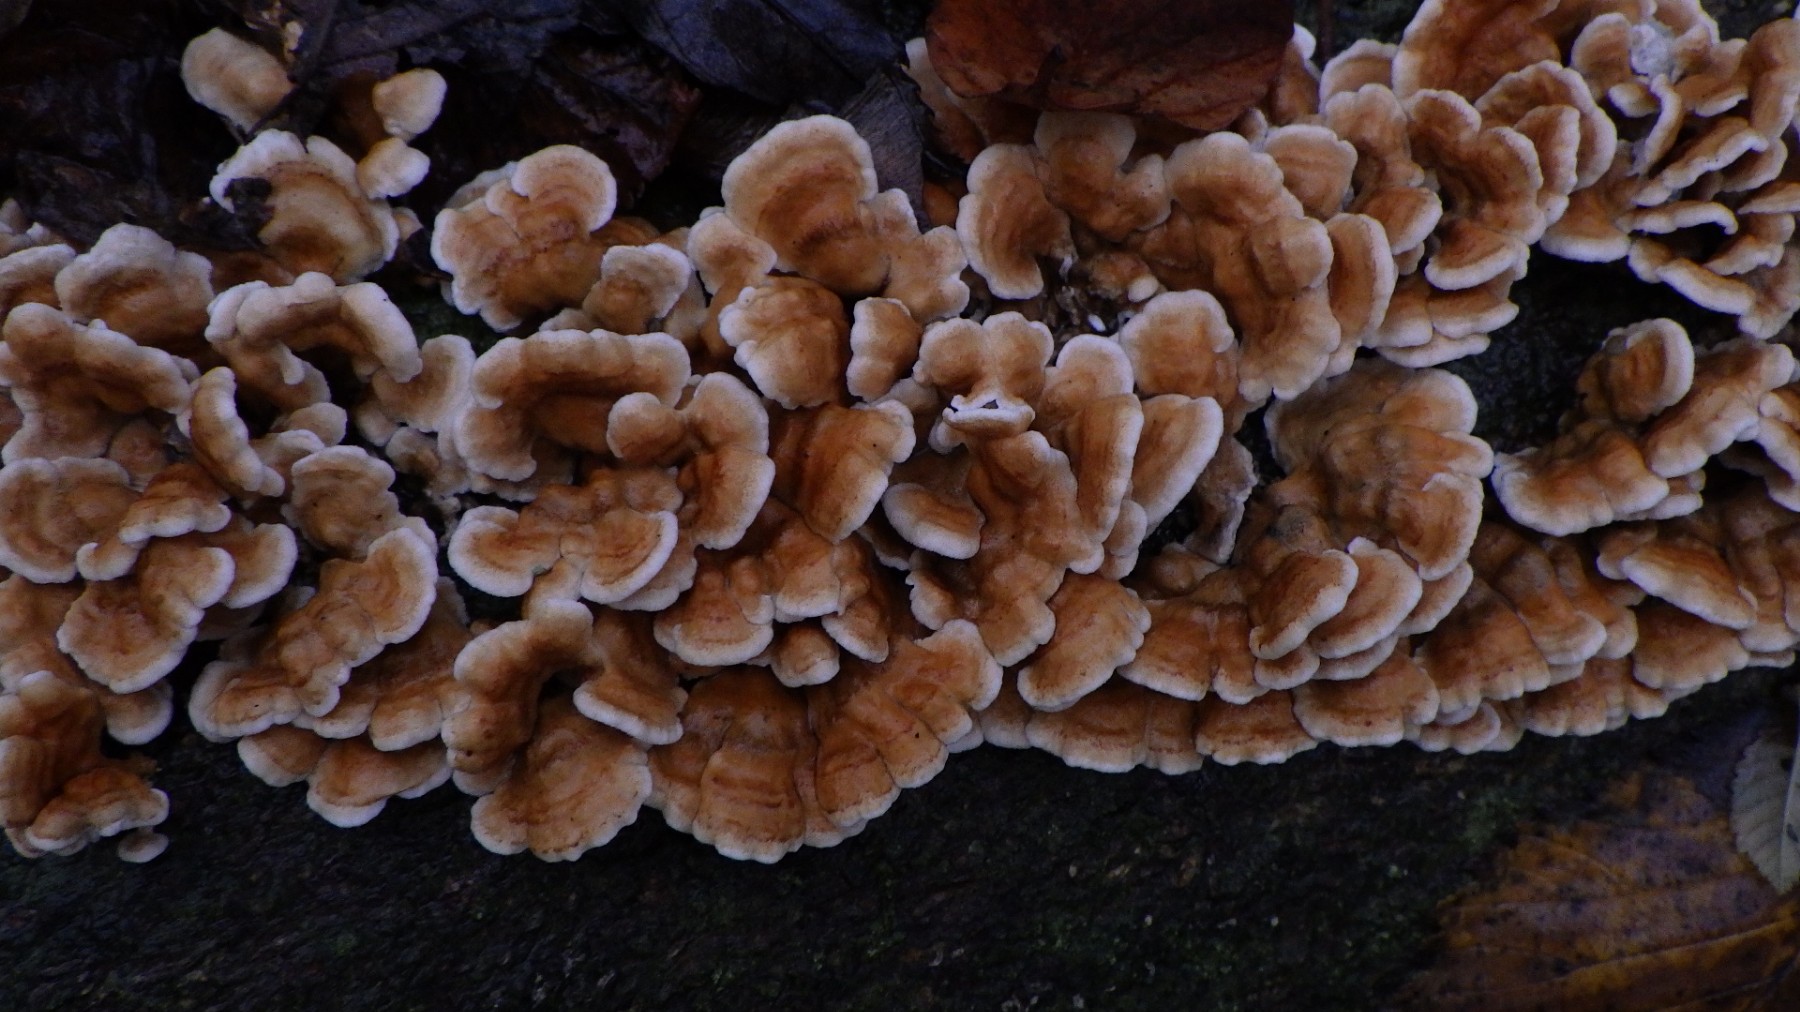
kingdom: Fungi
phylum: Basidiomycota
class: Agaricomycetes
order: Amylocorticiales
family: Amylocorticiaceae
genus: Plicaturopsis
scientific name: Plicaturopsis crispa
